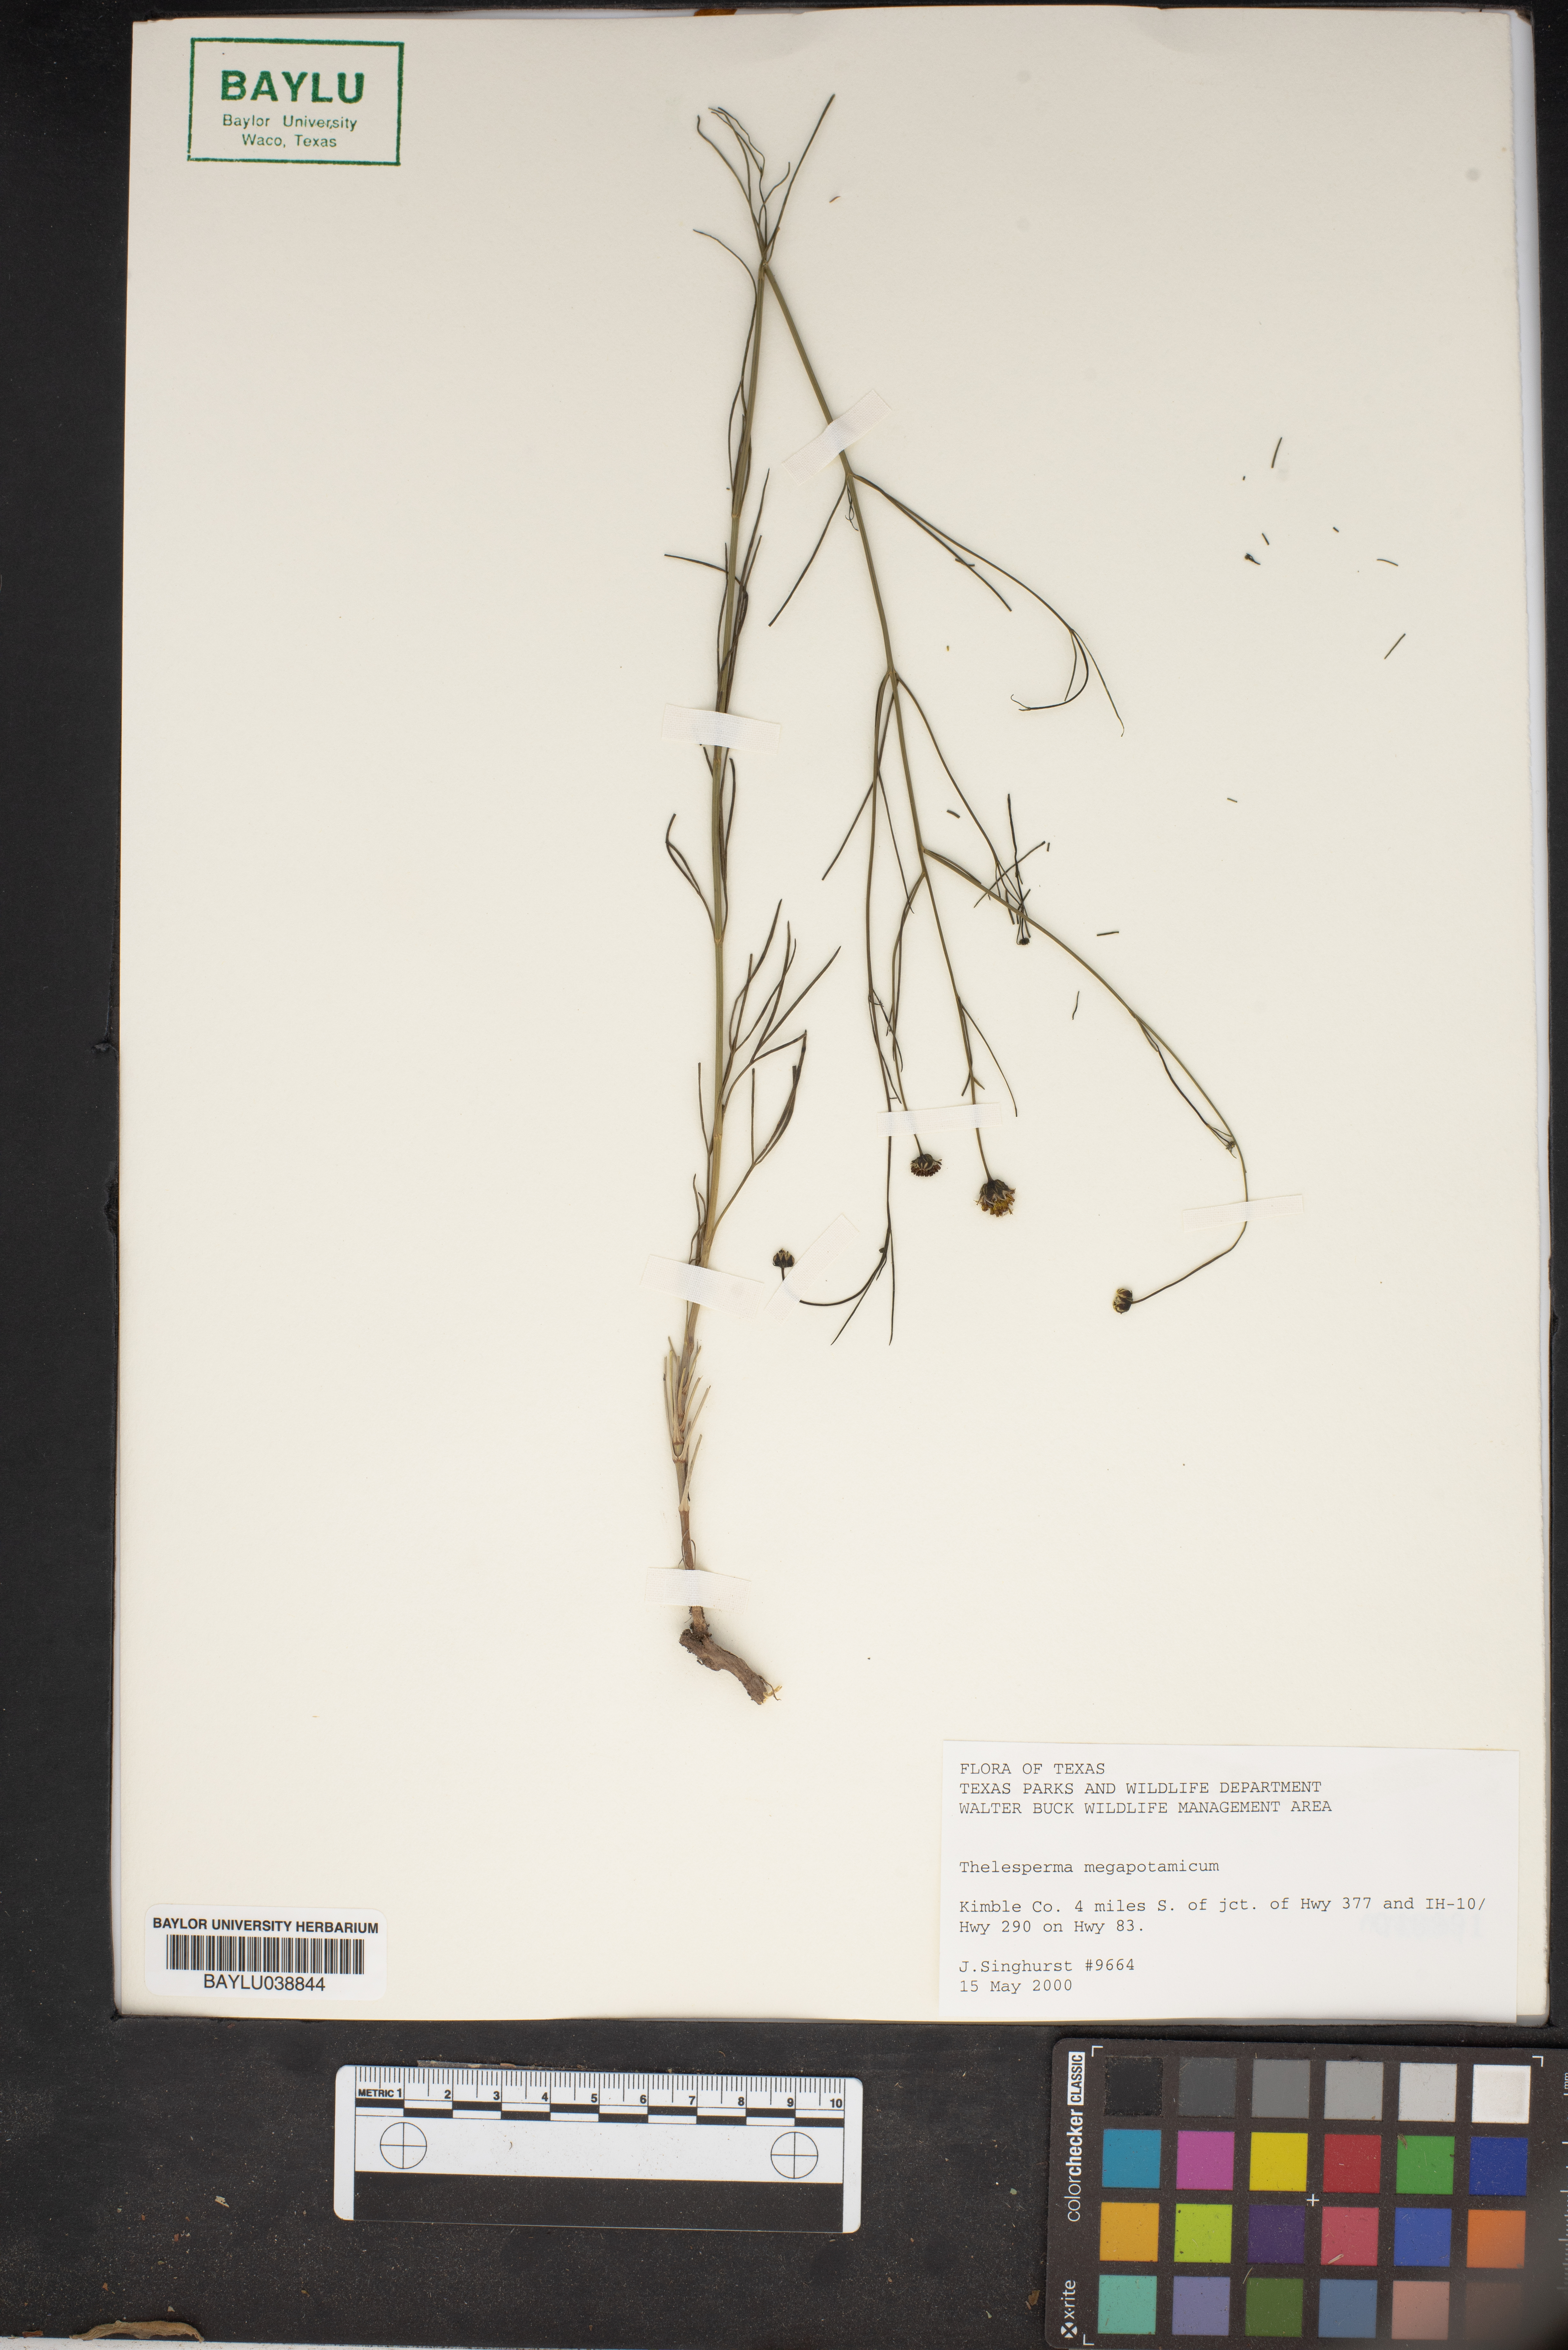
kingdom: Plantae
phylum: Tracheophyta
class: Magnoliopsida
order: Asterales
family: Asteraceae
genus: Thelesperma
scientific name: Thelesperma megapotamicum
